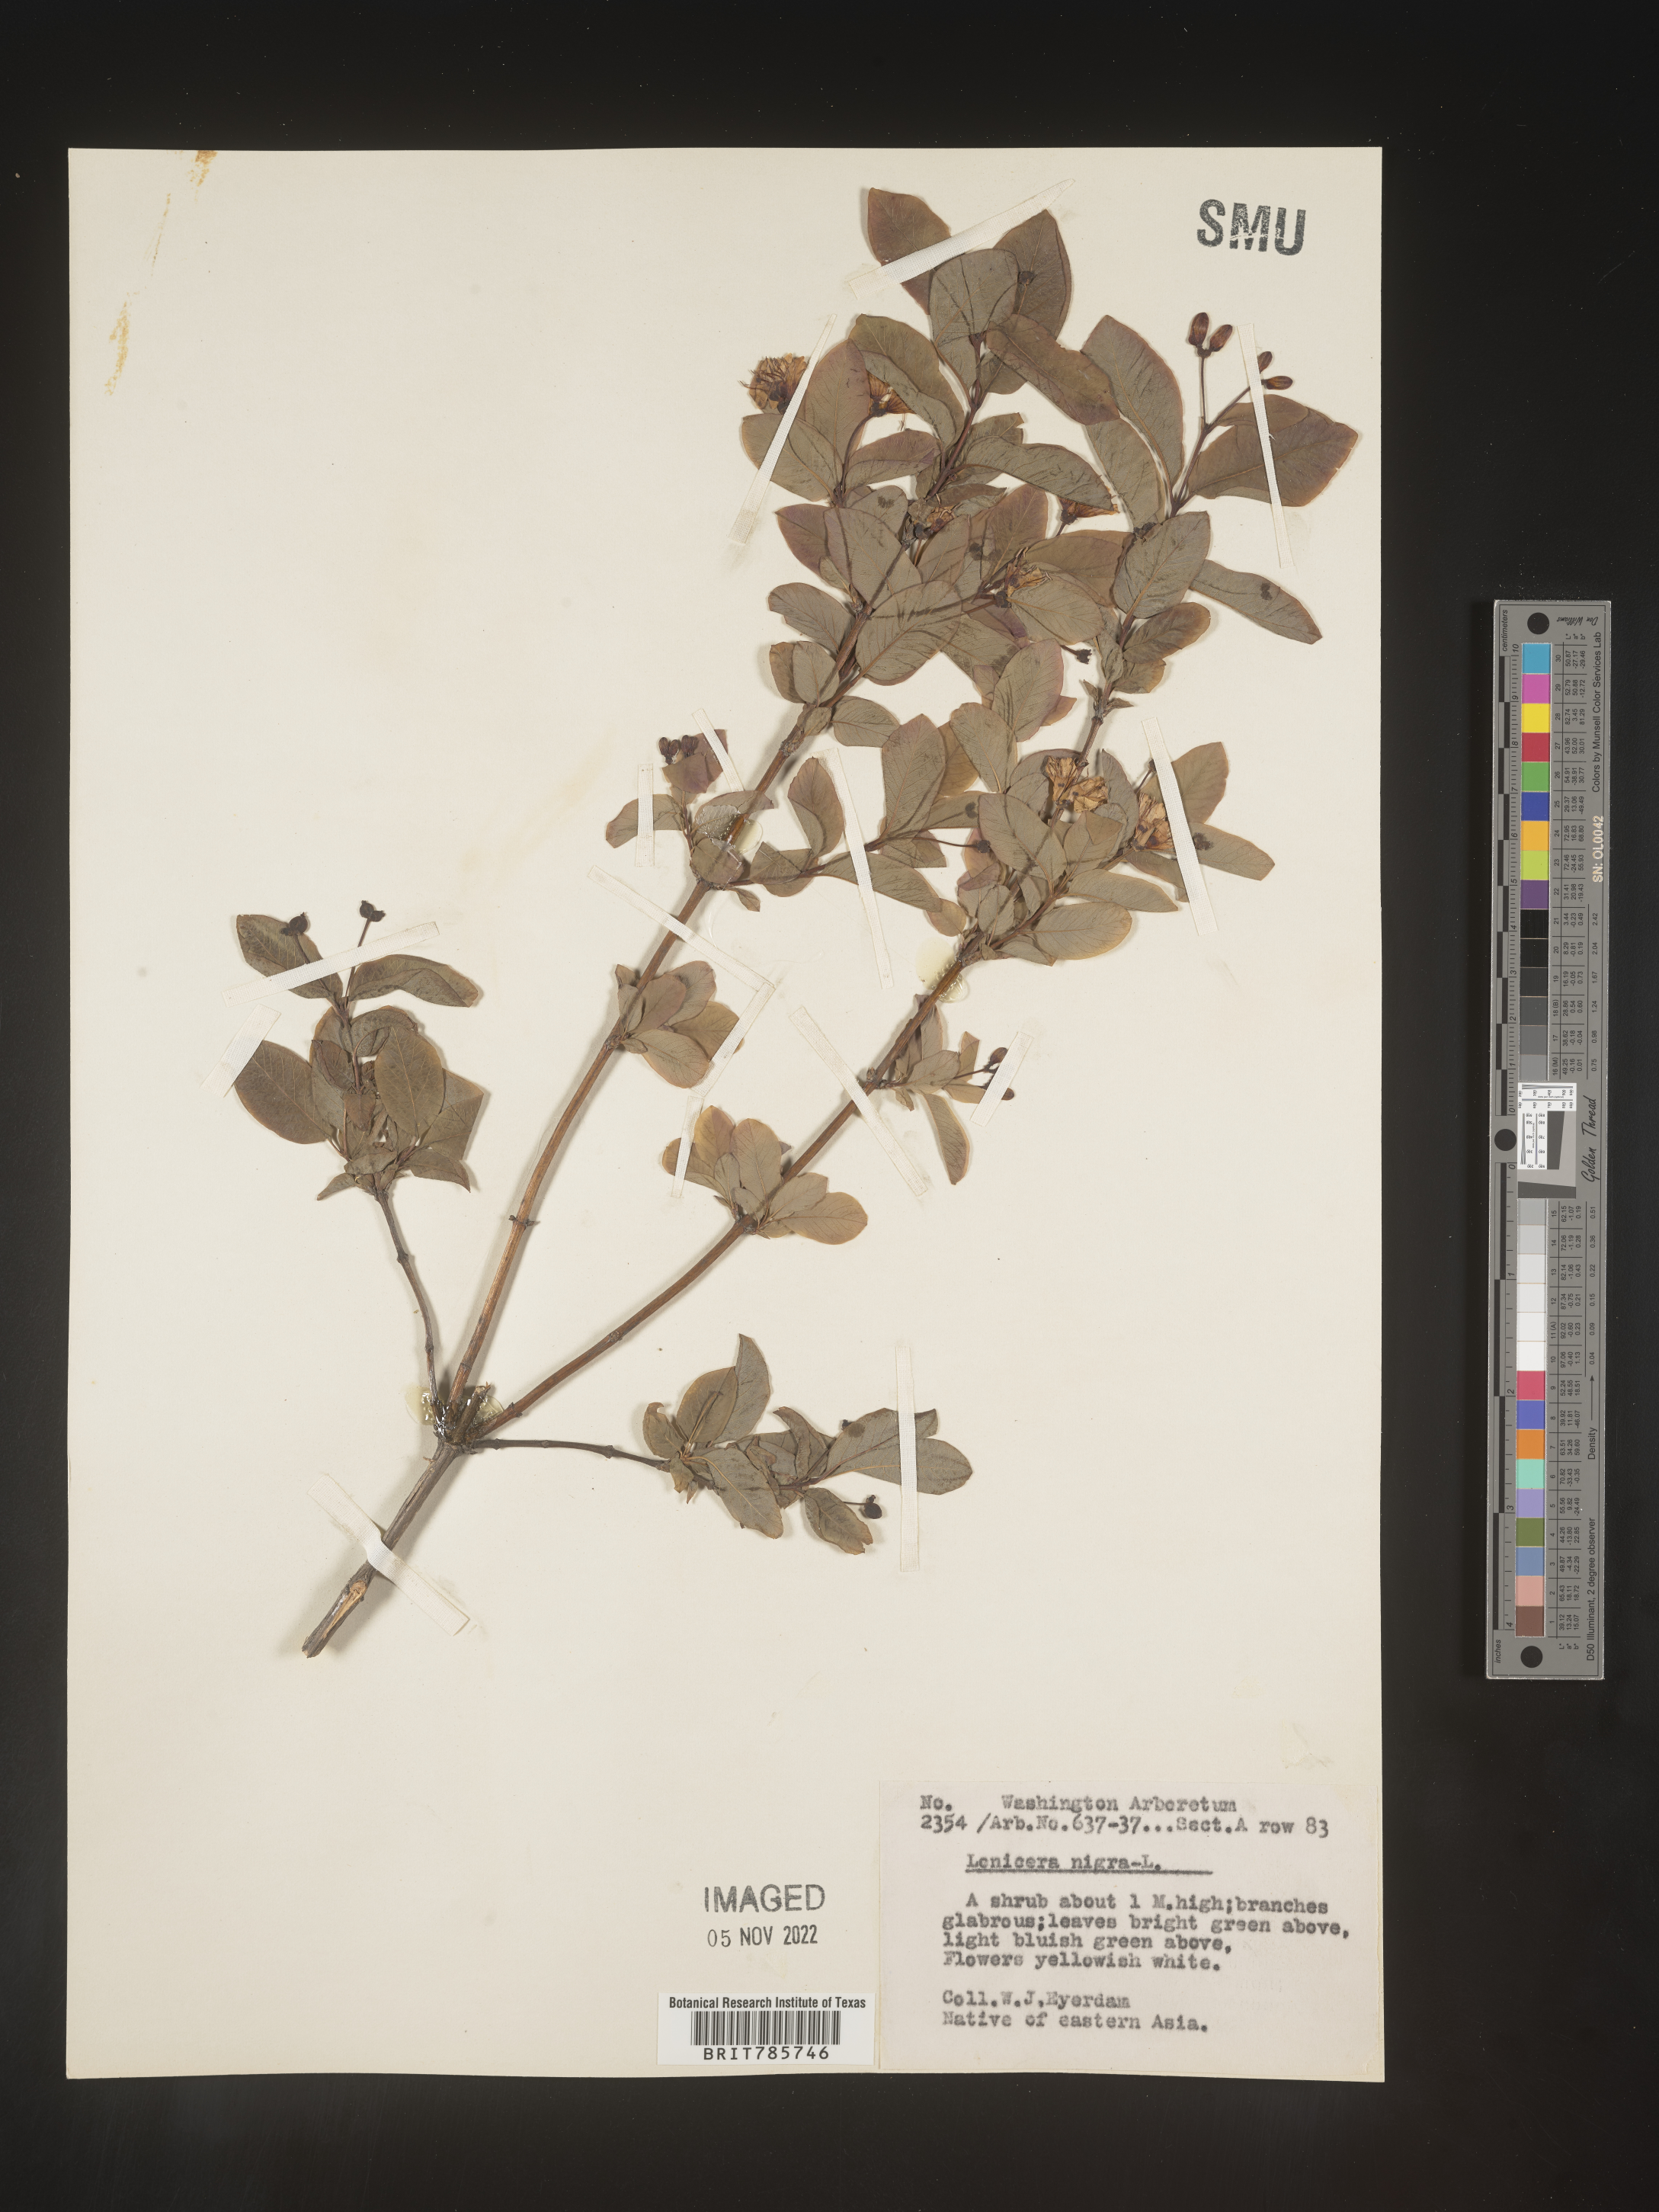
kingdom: Plantae
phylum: Tracheophyta
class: Magnoliopsida
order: Dipsacales
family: Caprifoliaceae
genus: Lonicera
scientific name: Lonicera
